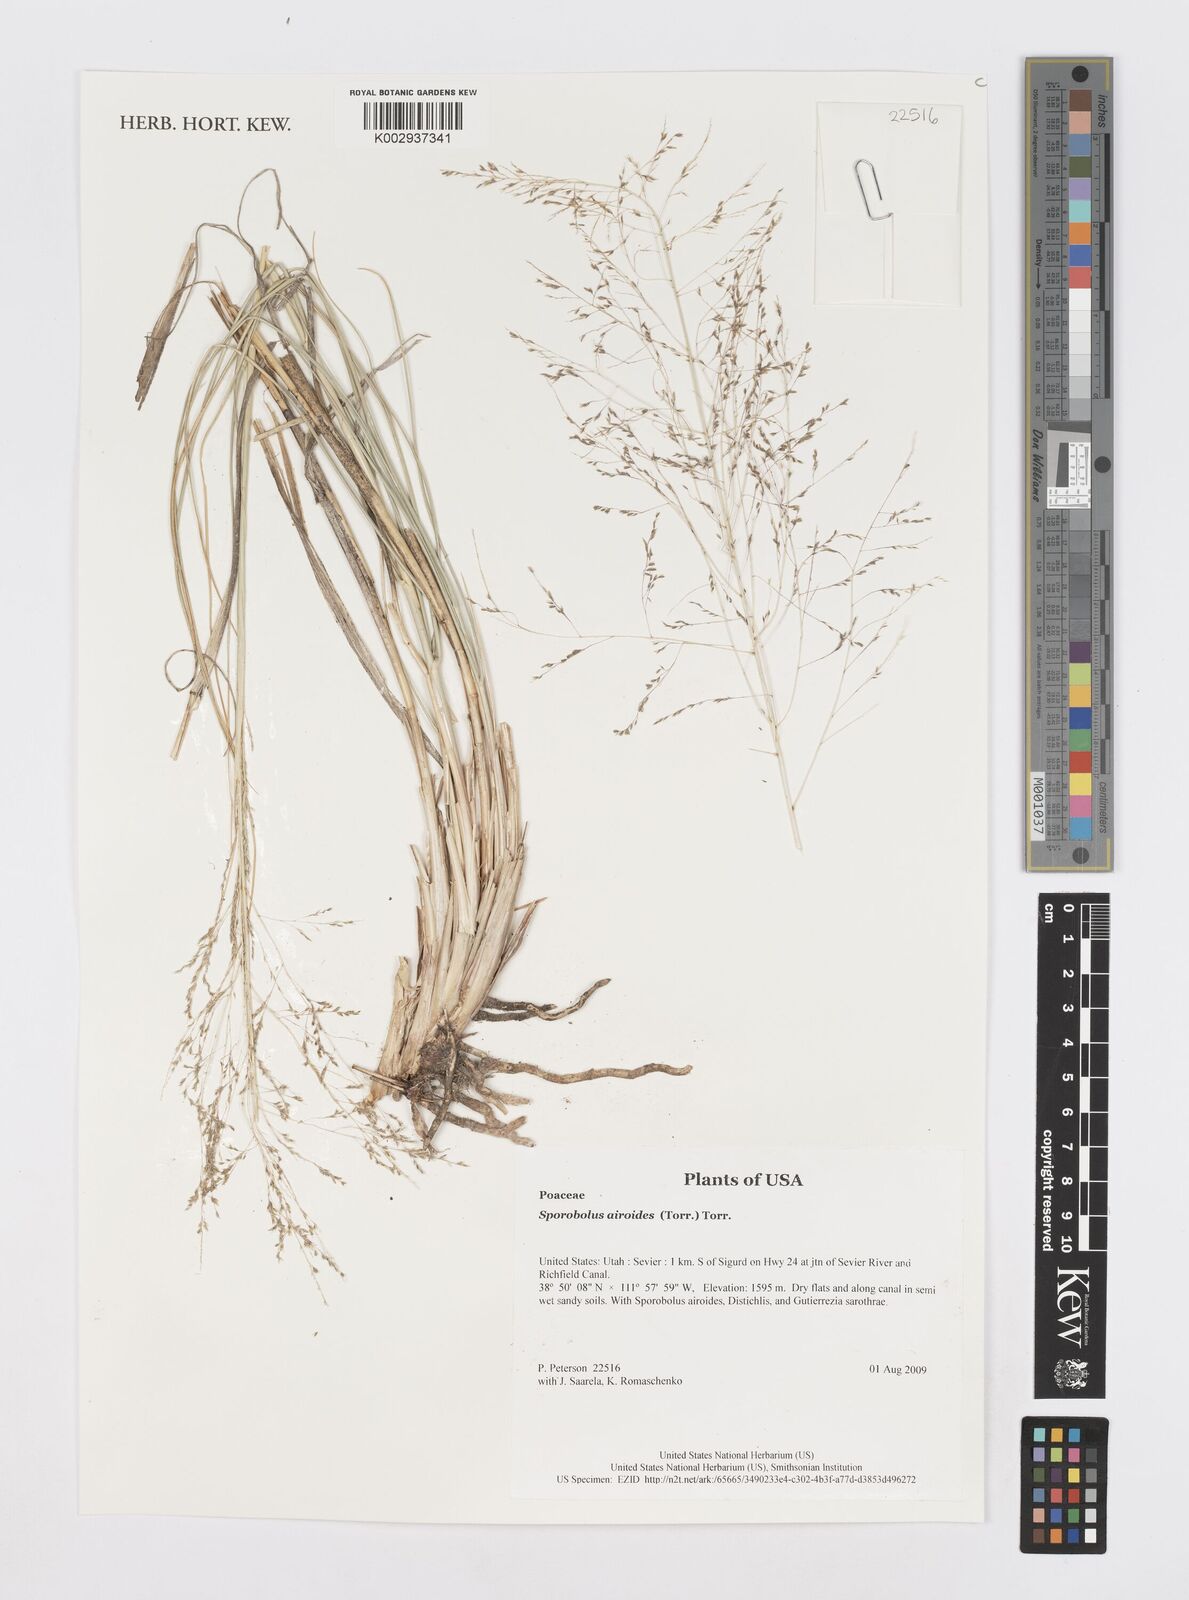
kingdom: Plantae
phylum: Tracheophyta
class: Liliopsida
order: Poales
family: Poaceae
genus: Sporobolus
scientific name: Sporobolus airoides
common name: Alkali sacaton
